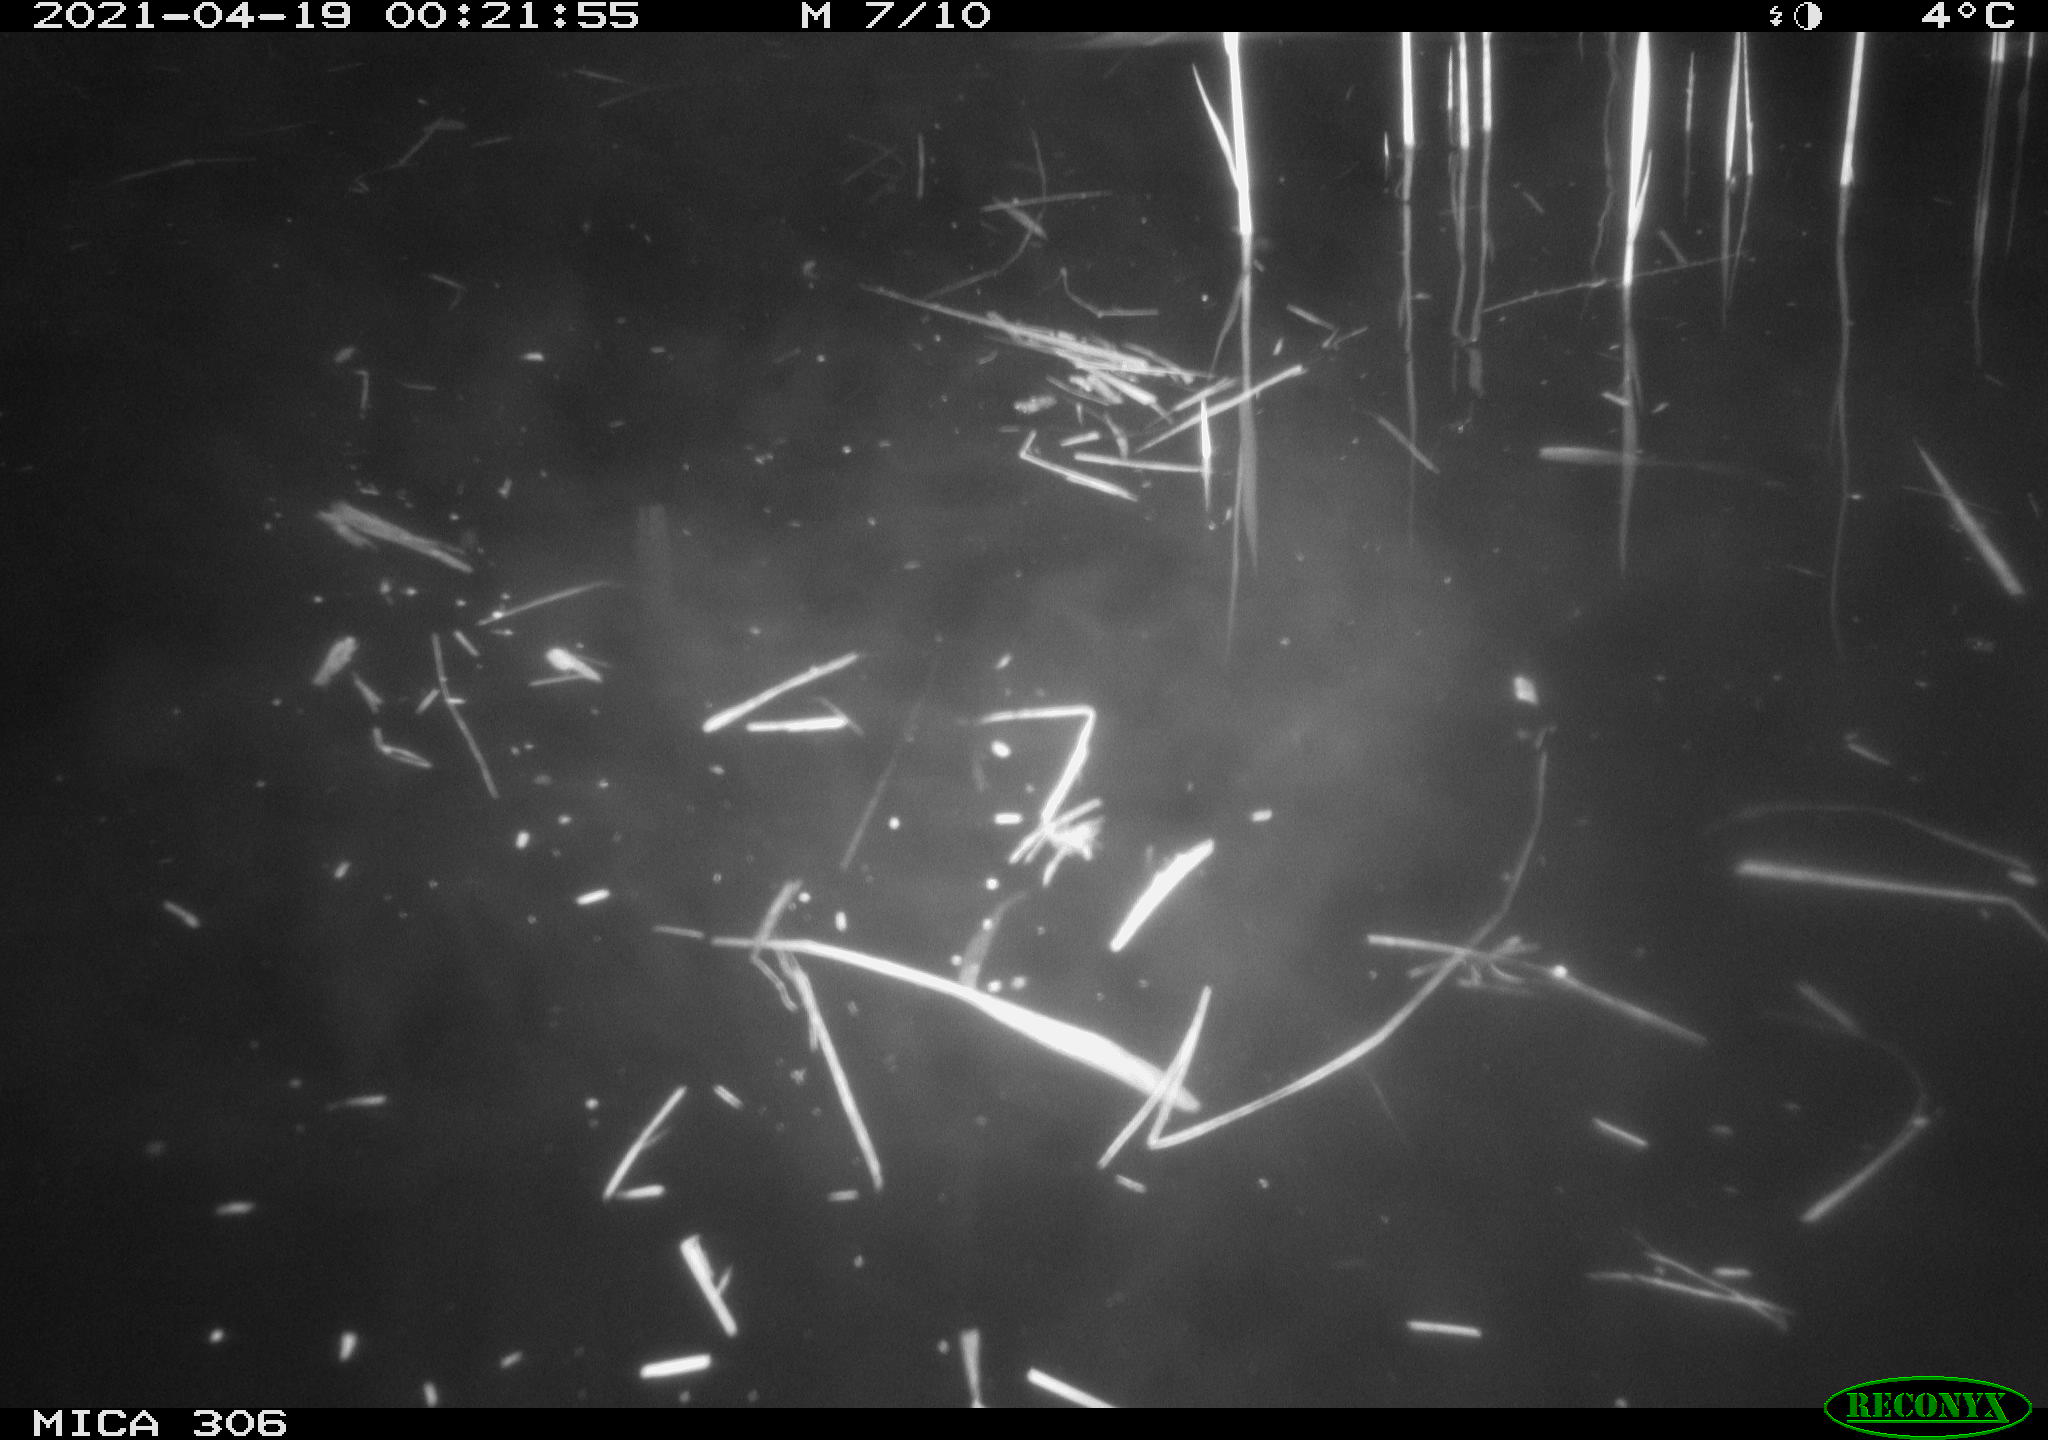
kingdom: Animalia
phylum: Chordata
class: Aves
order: Anseriformes
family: Anatidae
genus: Anas
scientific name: Anas
